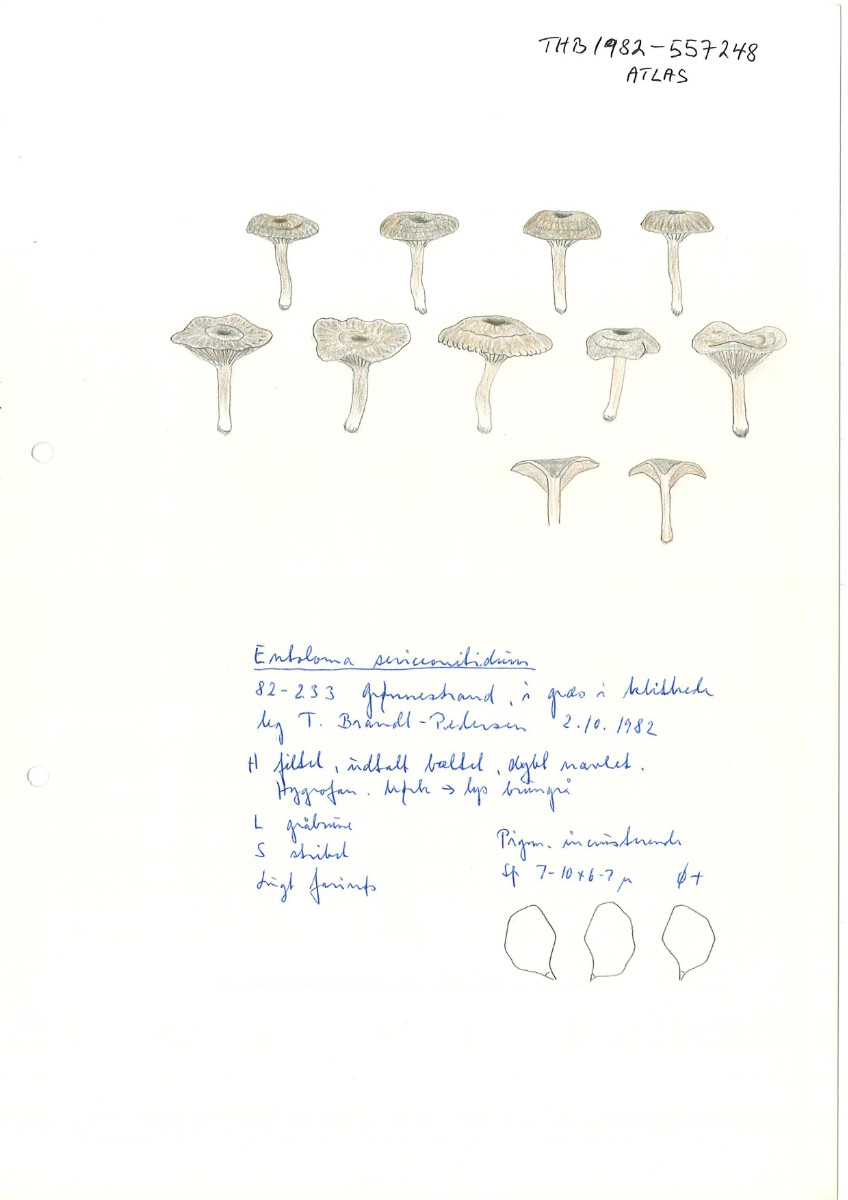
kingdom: Fungi
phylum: Basidiomycota
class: Agaricomycetes
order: Agaricales
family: Entolomataceae
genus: Entoloma
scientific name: Entoloma undatum
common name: bæltet rødblad
